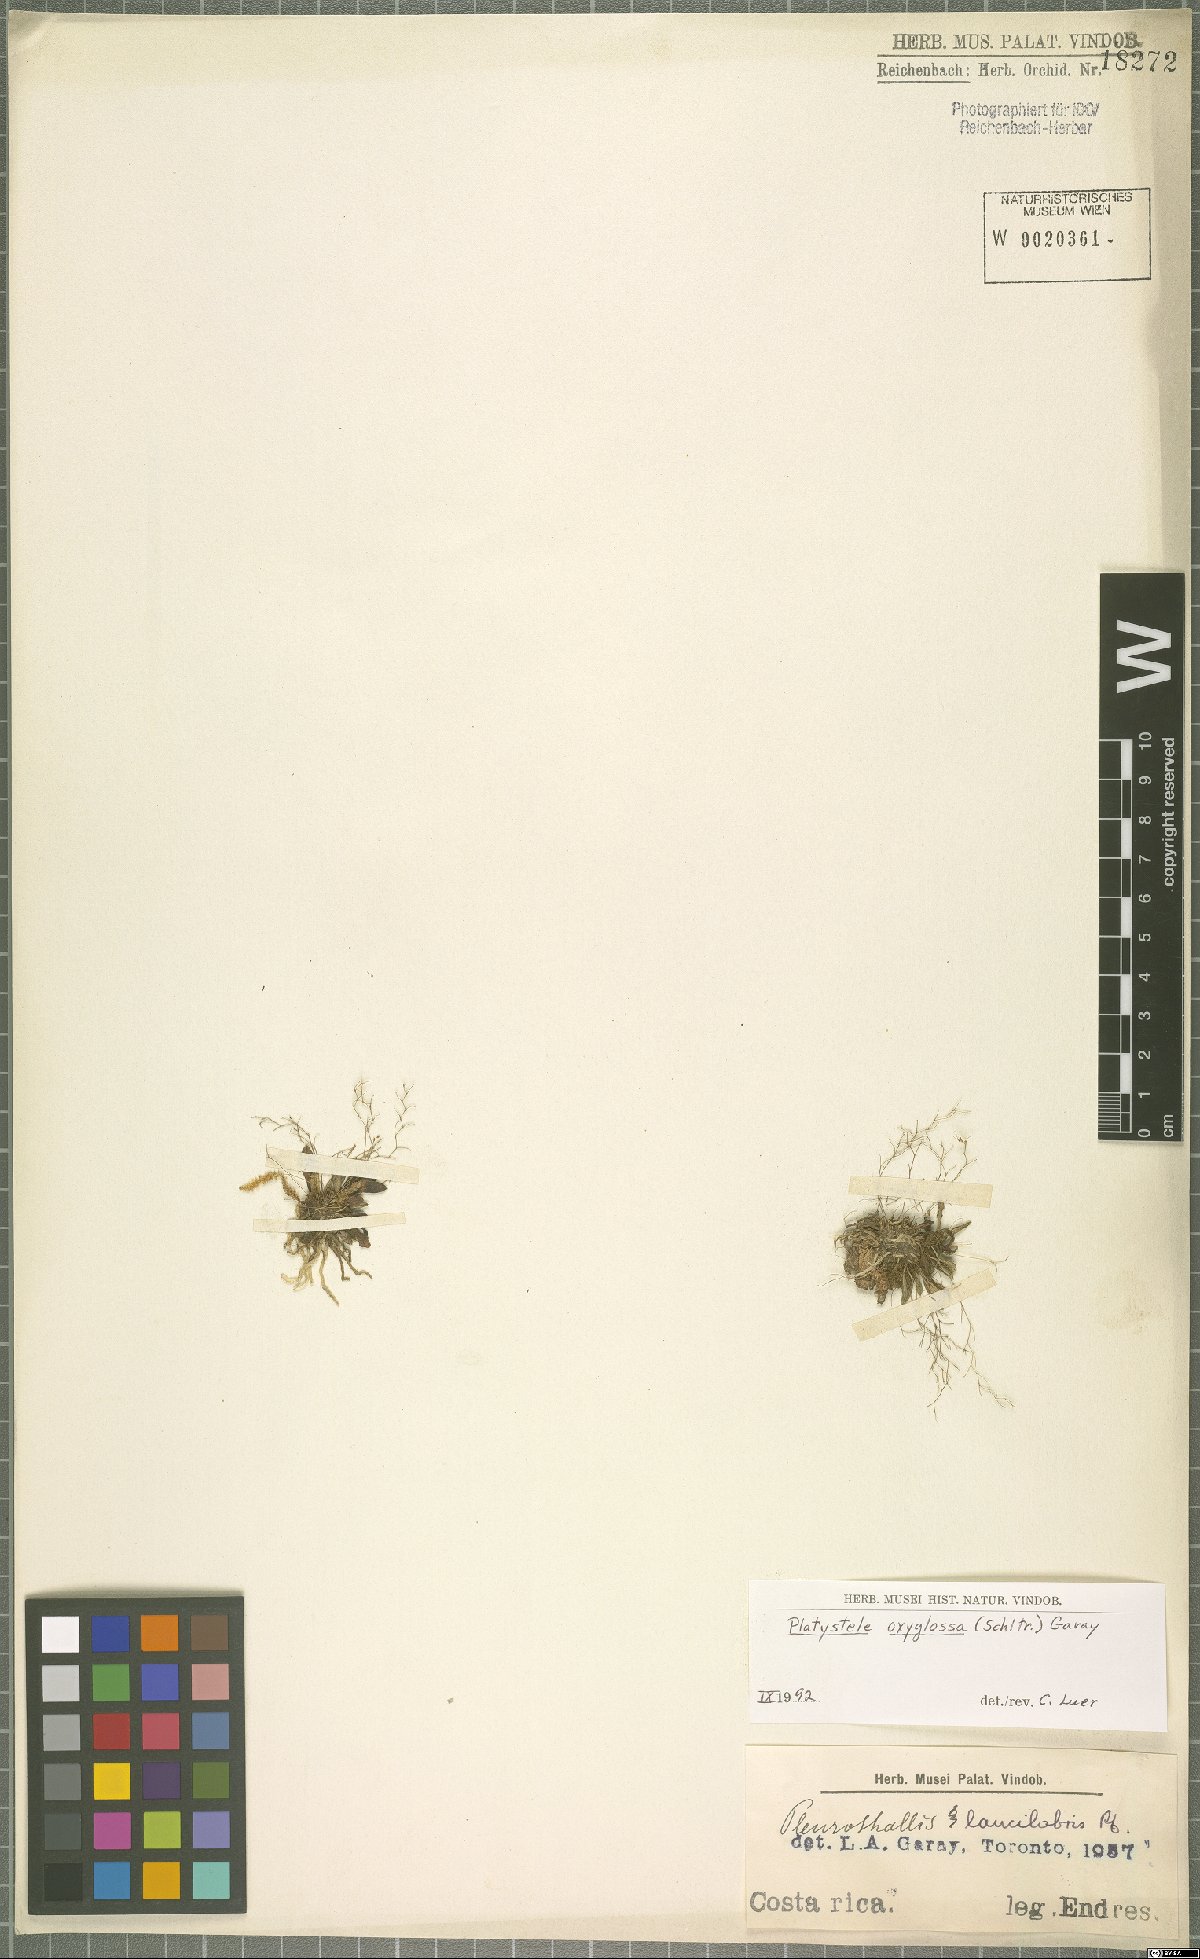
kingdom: Plantae
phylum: Tracheophyta
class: Liliopsida
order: Asparagales
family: Orchidaceae
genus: Platystele
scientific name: Platystele oxyglossa
